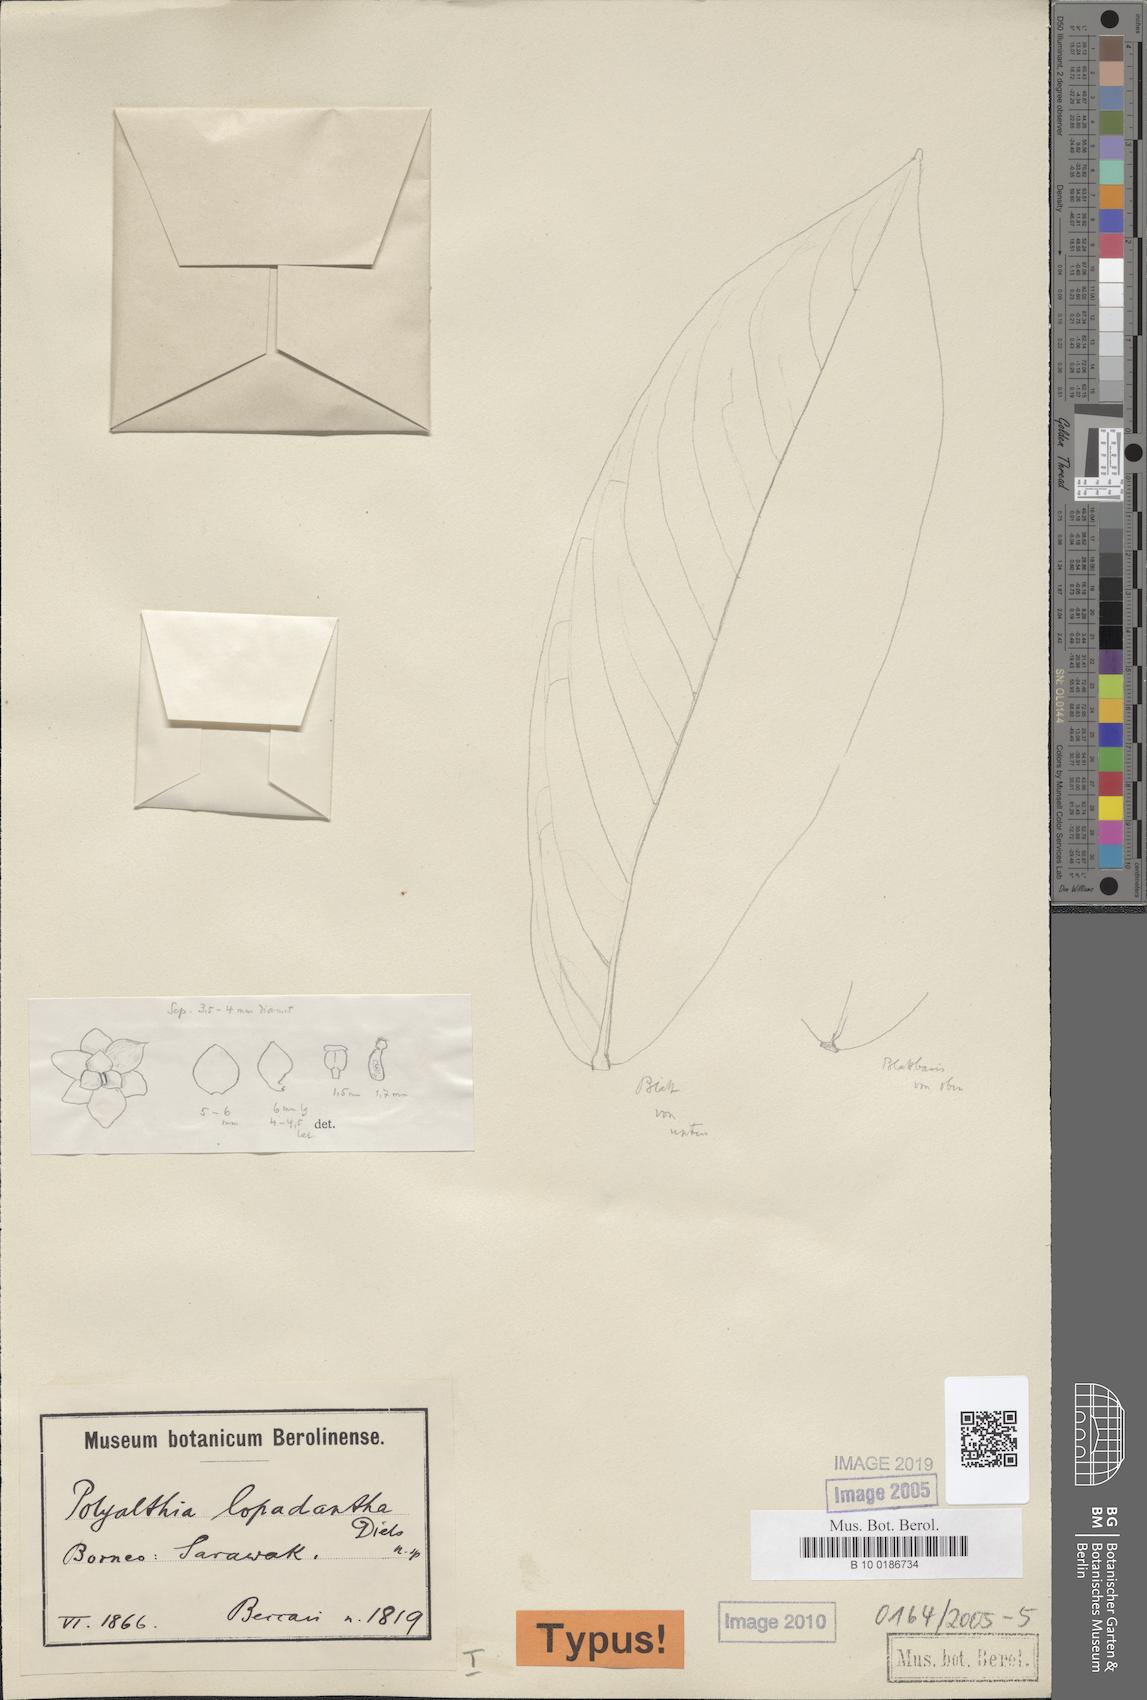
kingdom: Plantae
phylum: Tracheophyta
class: Magnoliopsida
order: Magnoliales
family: Annonaceae
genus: Polyalthia
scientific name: Polyalthia obliqua
